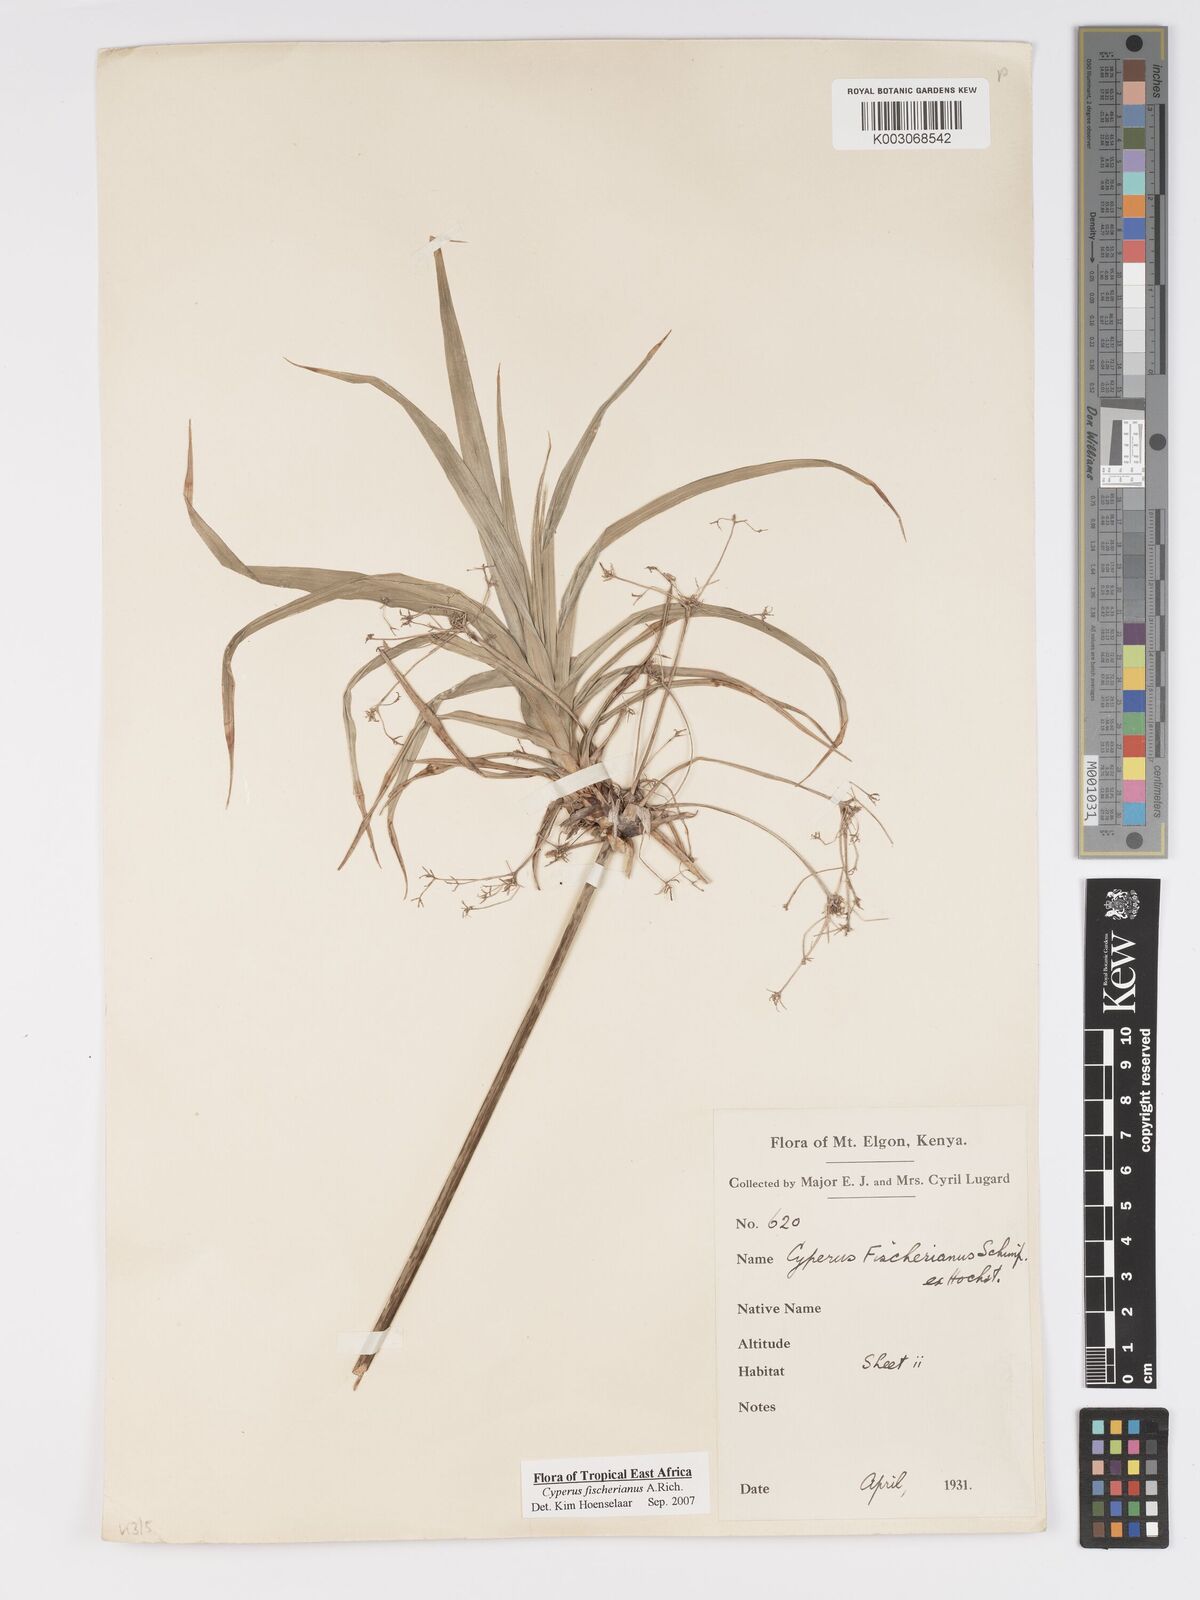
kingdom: Plantae
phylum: Tracheophyta
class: Liliopsida
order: Poales
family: Cyperaceae
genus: Cyperus
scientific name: Cyperus fischerianus
